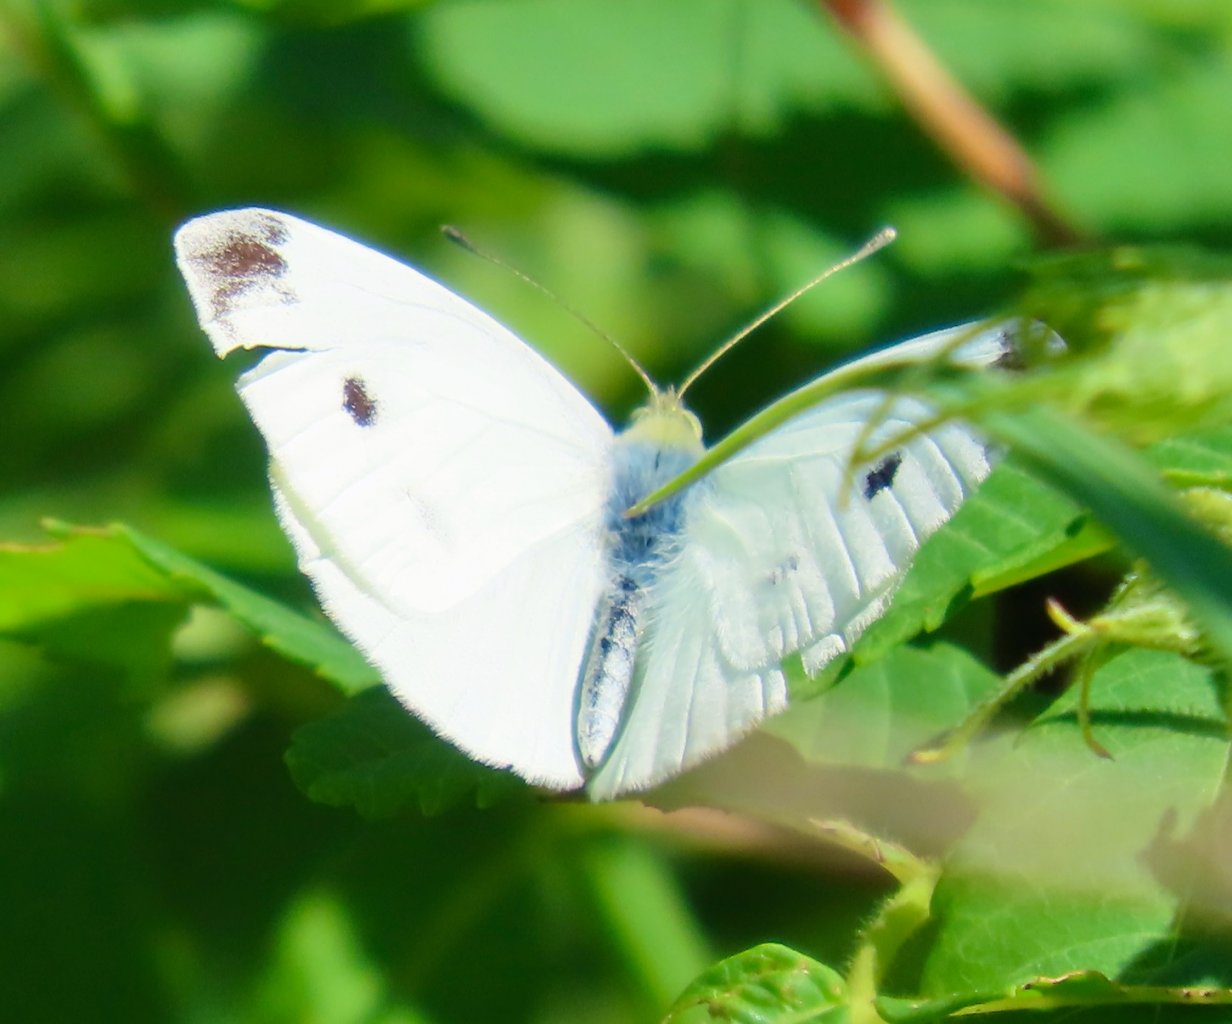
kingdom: Animalia
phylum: Arthropoda
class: Insecta
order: Lepidoptera
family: Pieridae
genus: Pieris
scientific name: Pieris rapae
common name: Cabbage White
